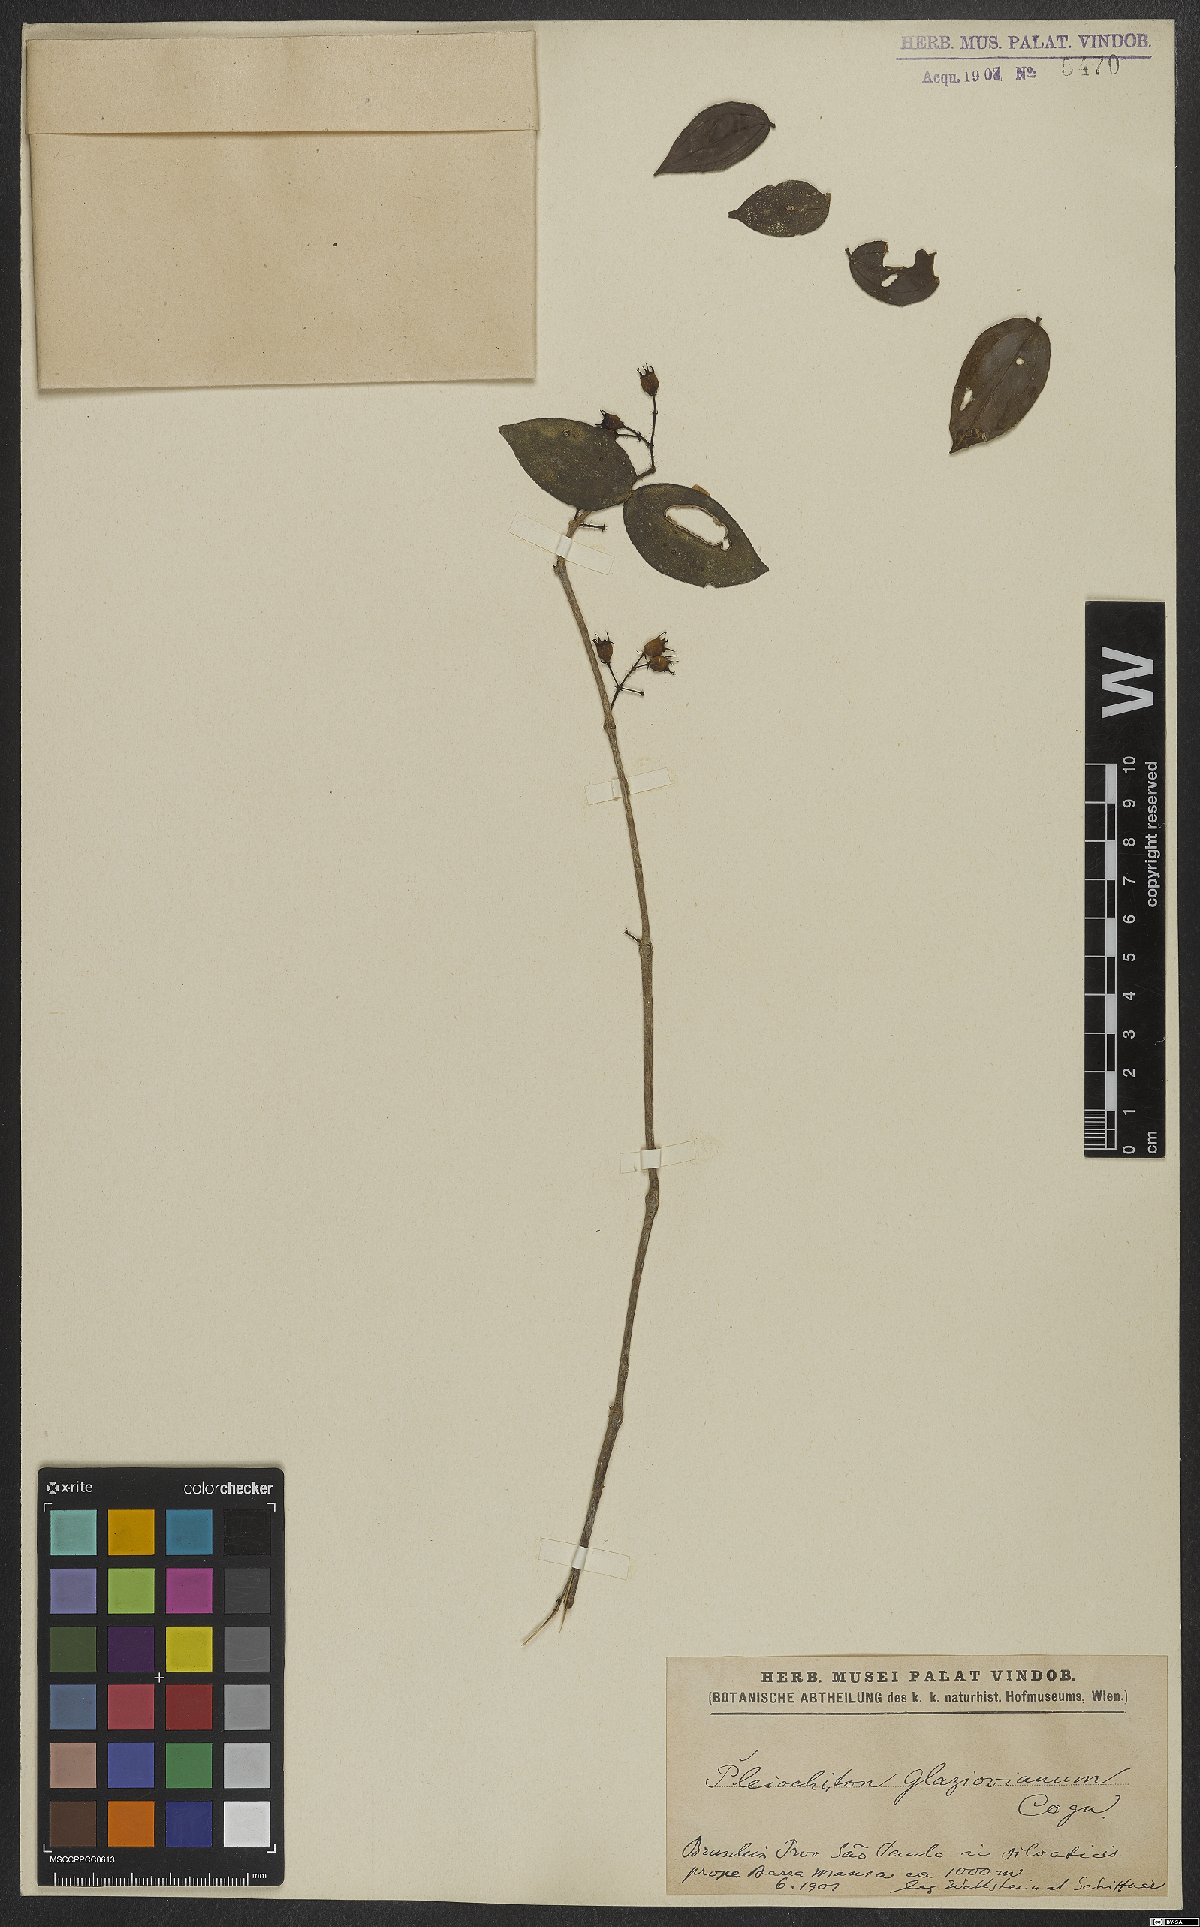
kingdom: Plantae
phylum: Tracheophyta
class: Magnoliopsida
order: Myrtales
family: Melastomataceae
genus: Miconia
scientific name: Miconia pleioglazioviana
